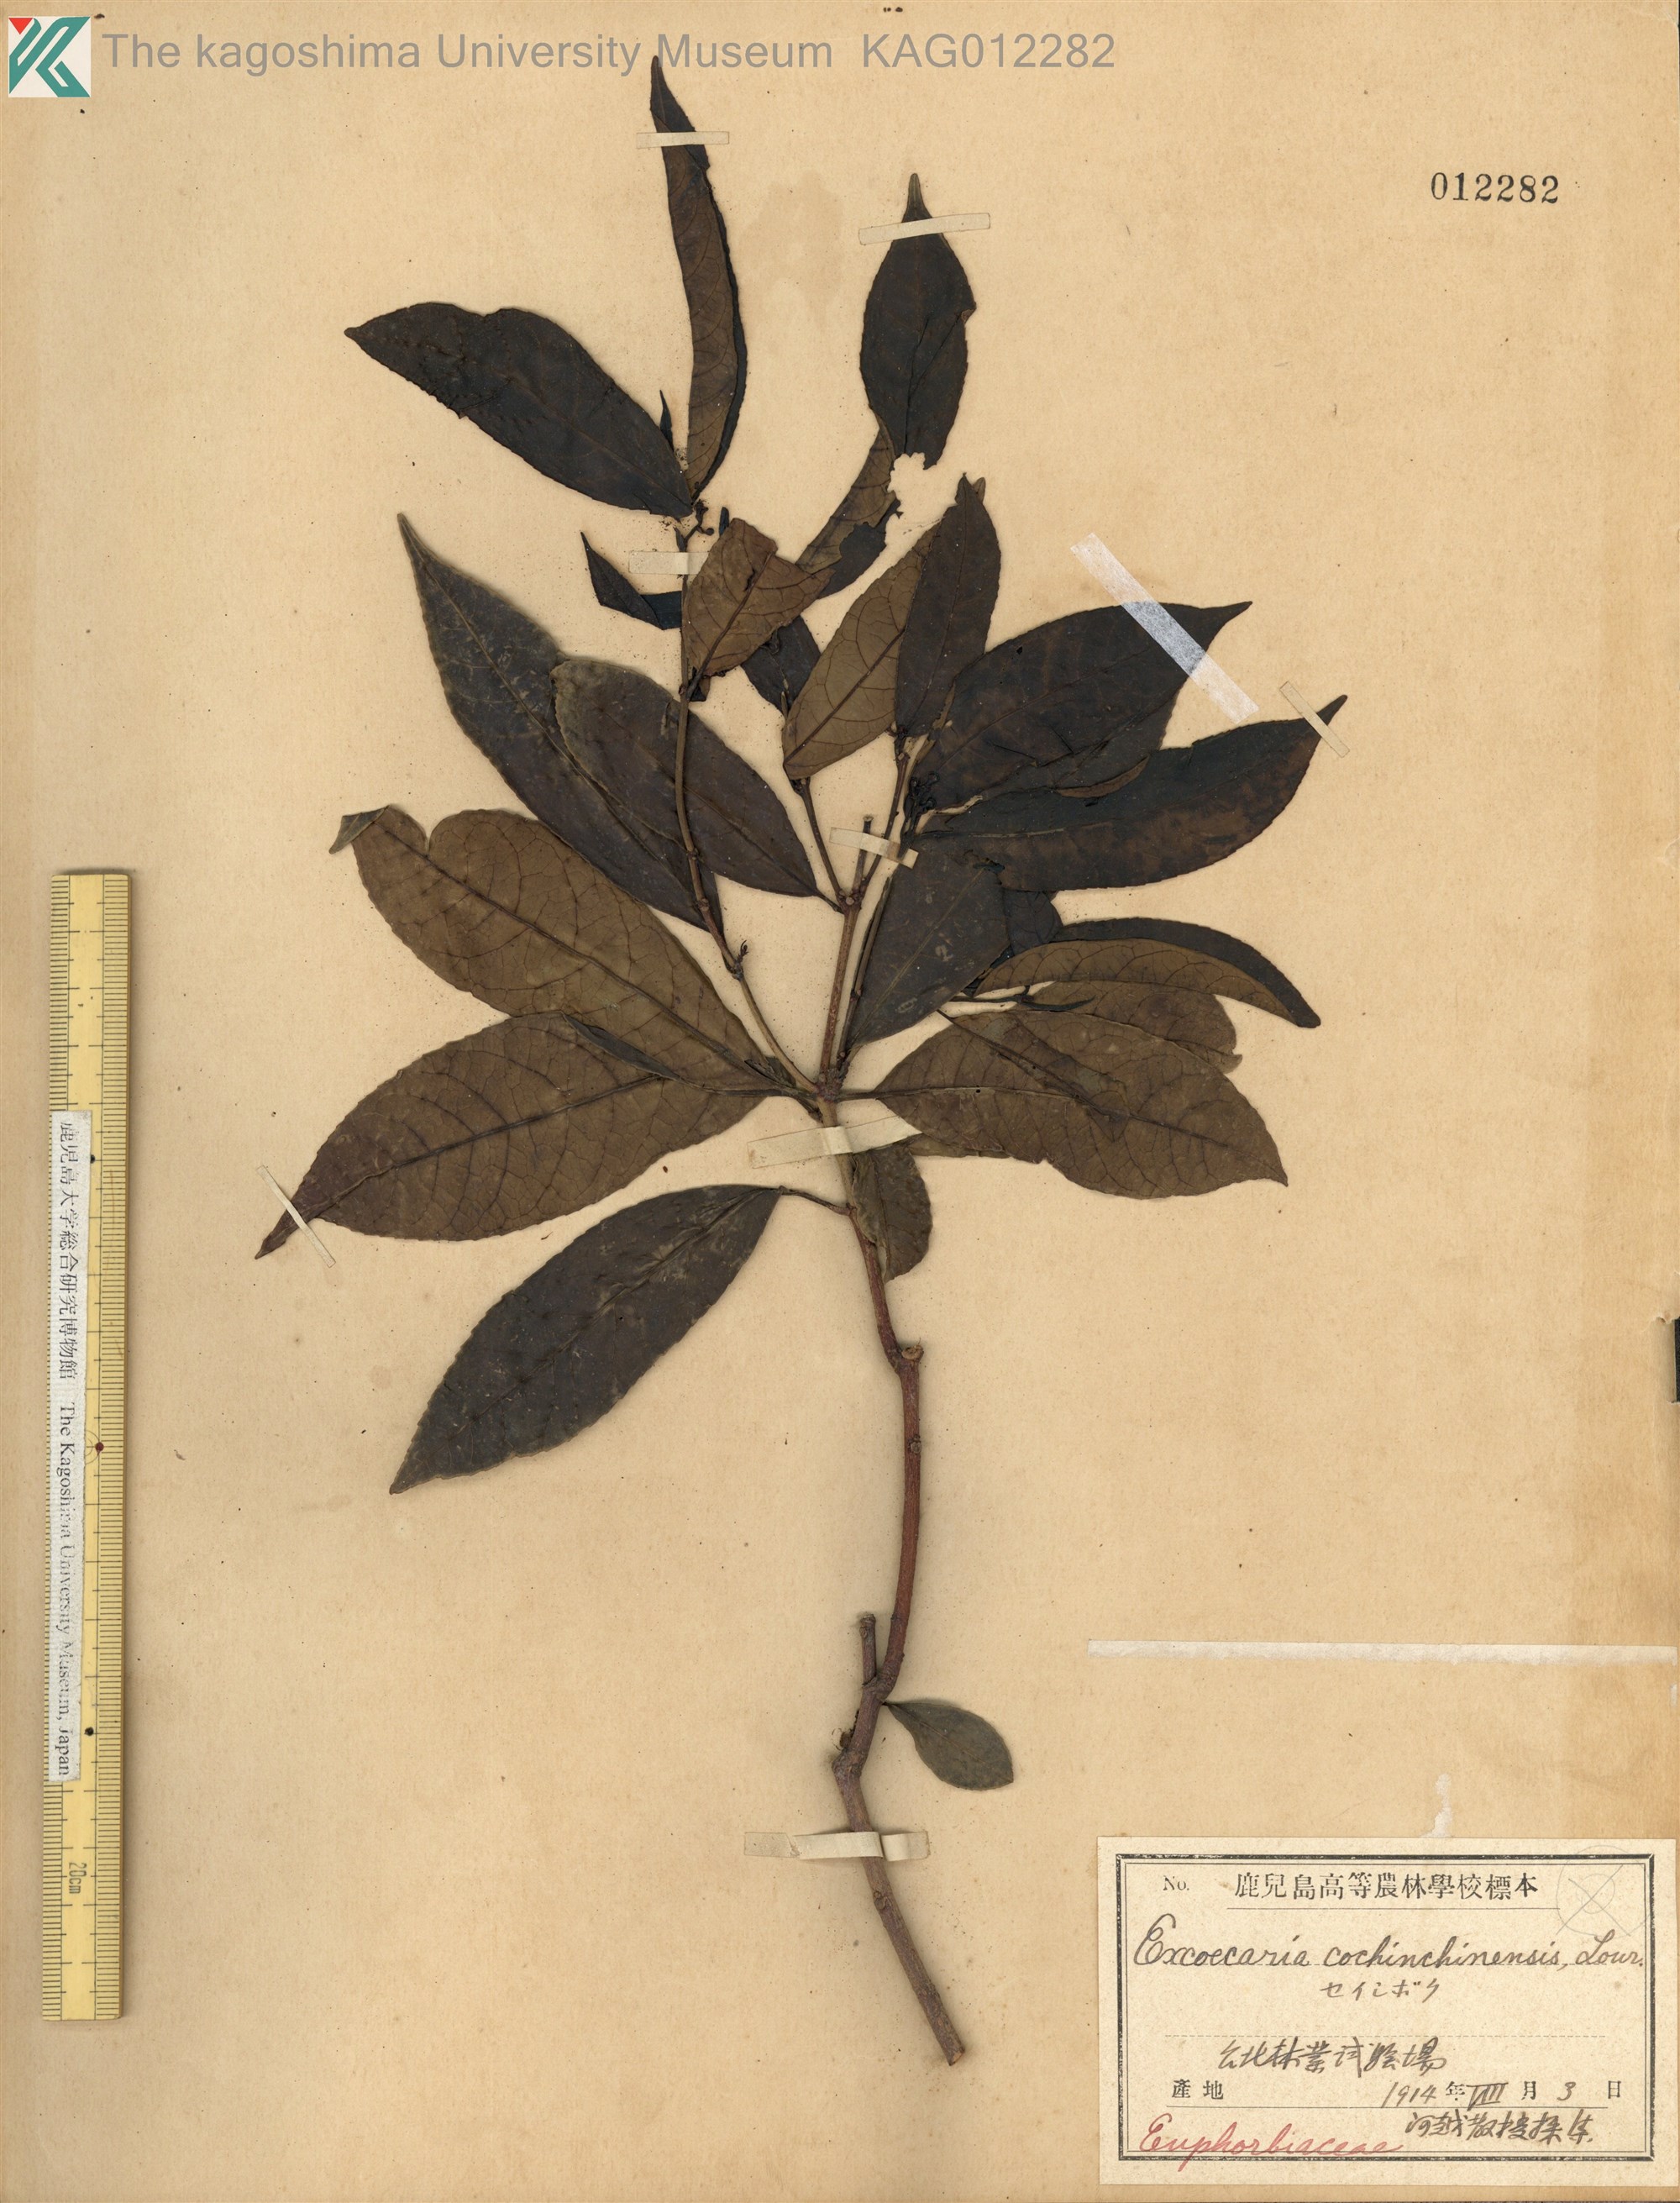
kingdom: Plantae
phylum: Tracheophyta
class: Magnoliopsida
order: Malpighiales
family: Euphorbiaceae
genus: Excoecaria
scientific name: Excoecaria cochinchinensis
